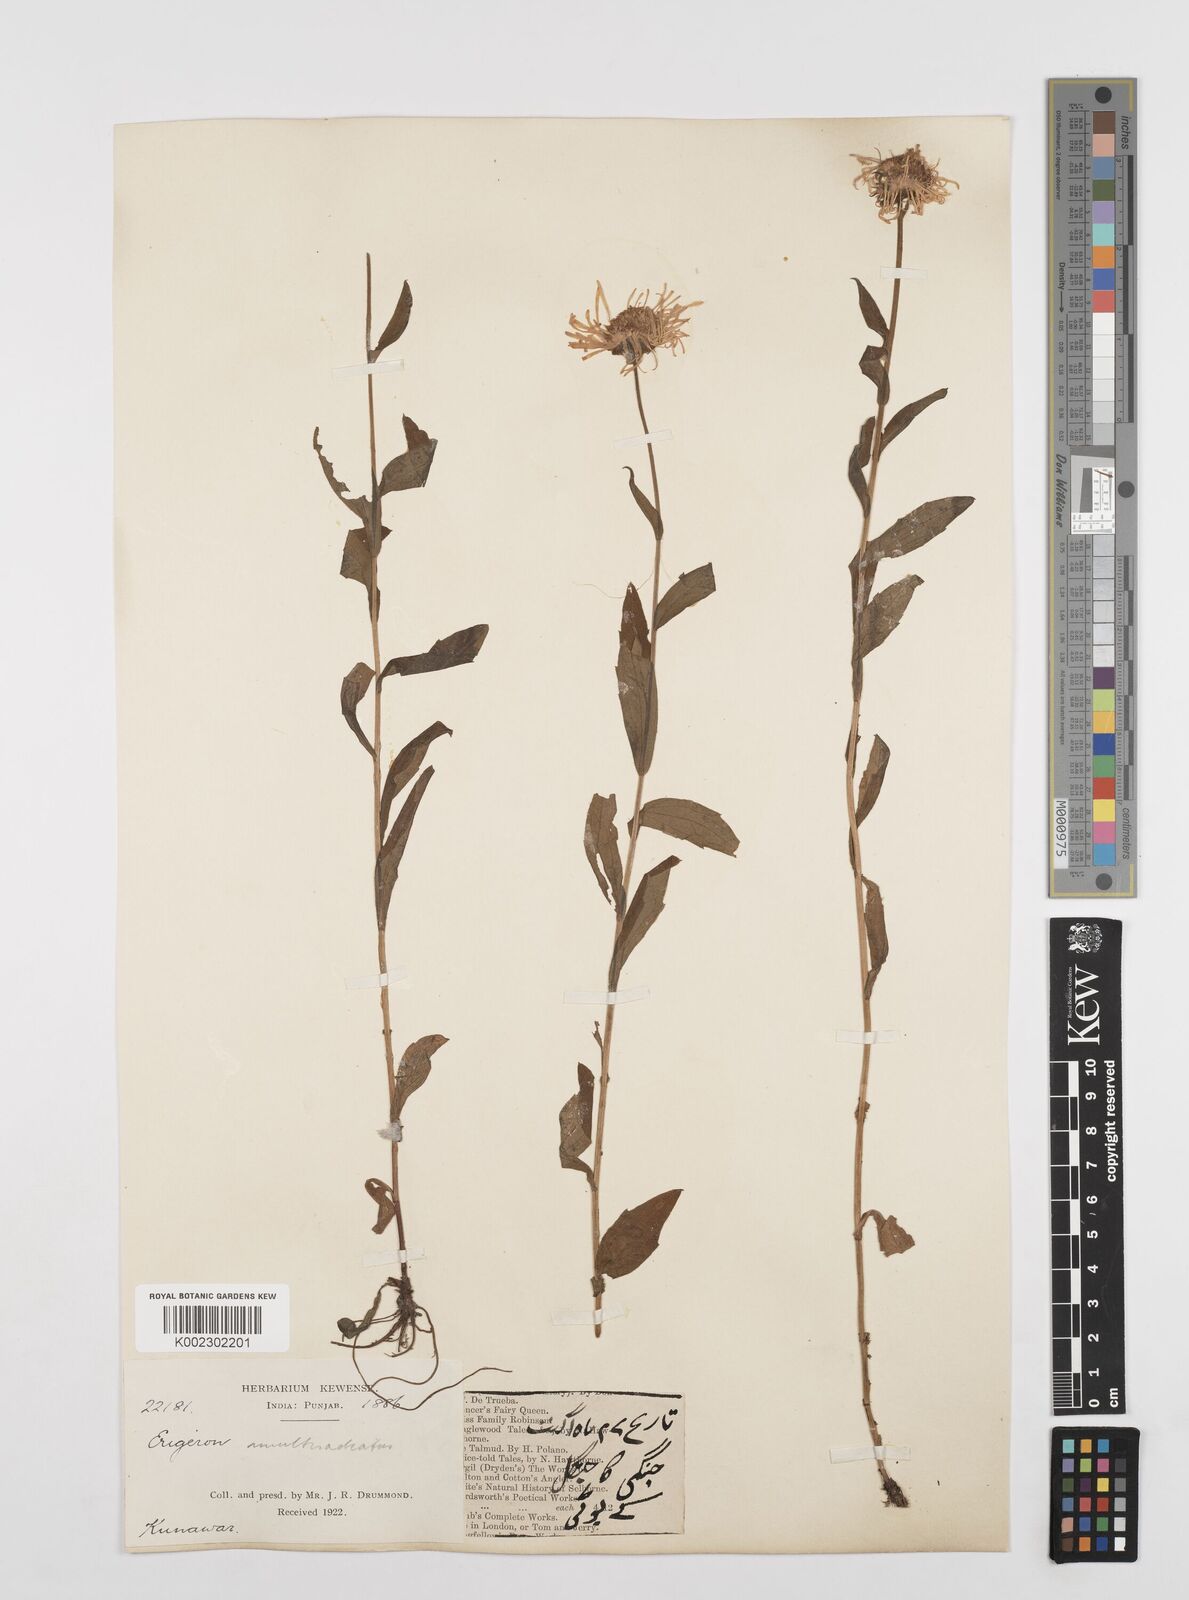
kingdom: Plantae
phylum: Tracheophyta
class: Magnoliopsida
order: Asterales
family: Asteraceae
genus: Erigeron
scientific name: Erigeron multiradiatus
